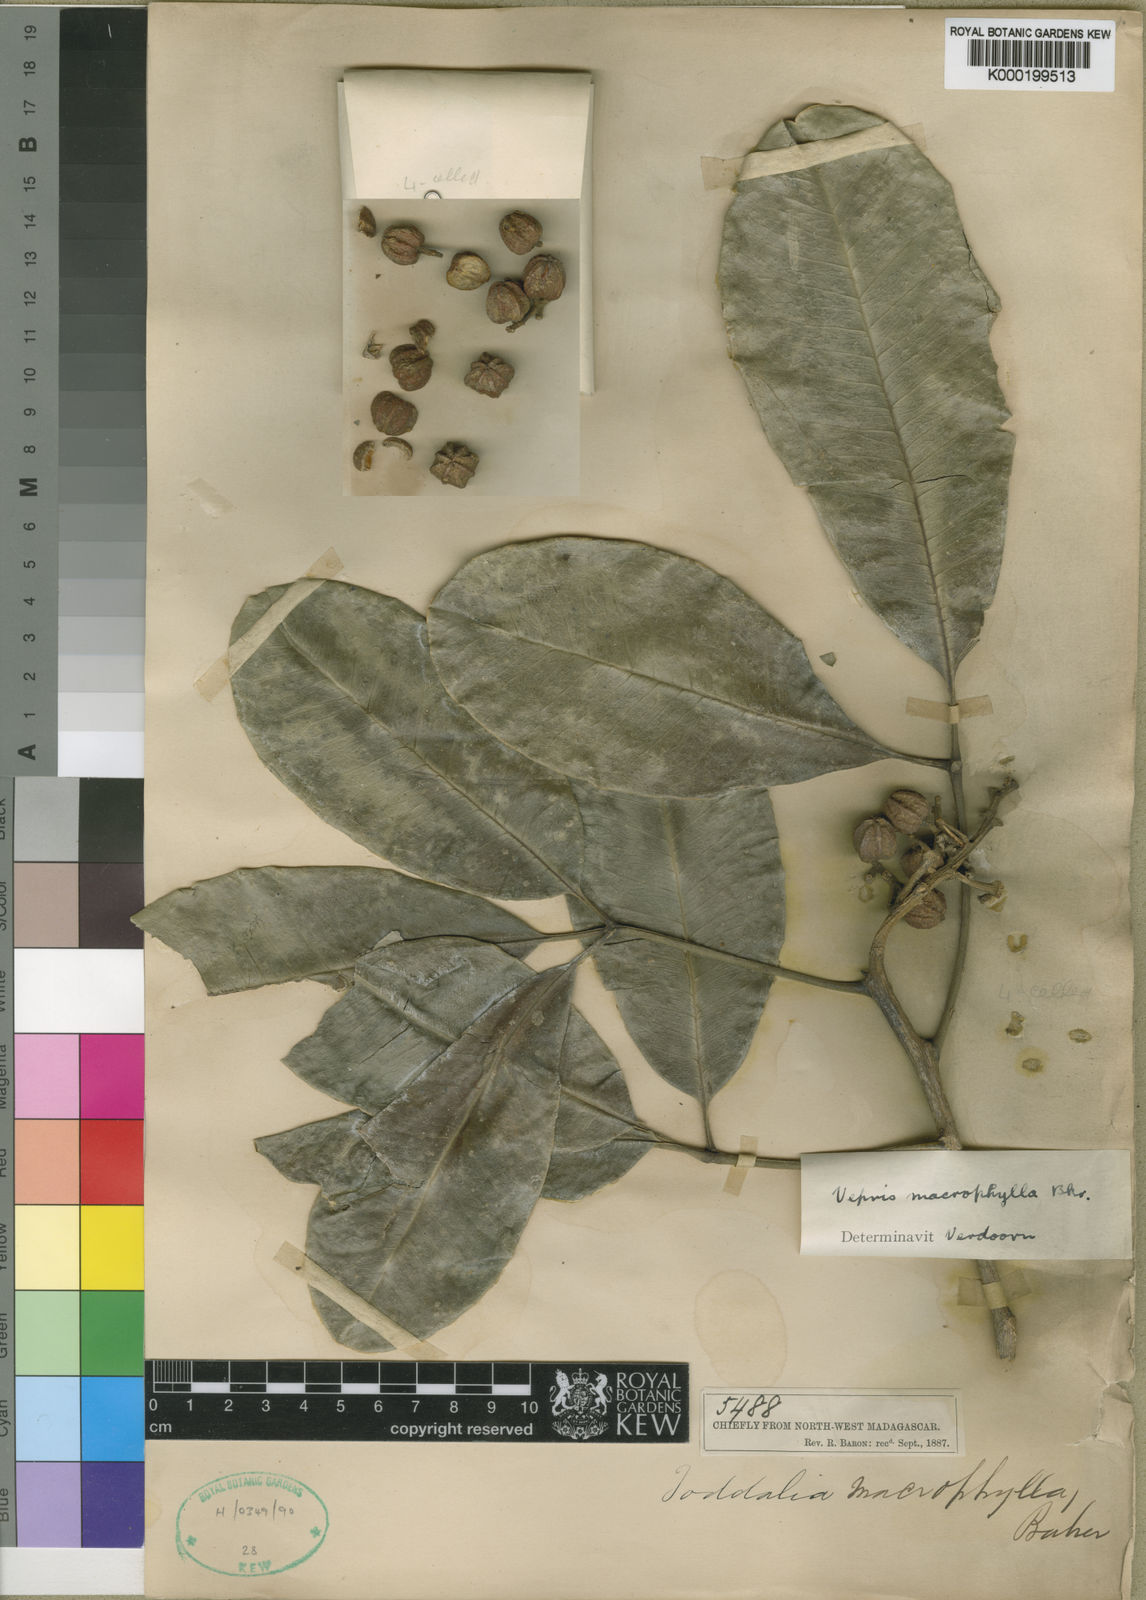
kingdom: Plantae
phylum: Tracheophyta
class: Magnoliopsida
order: Sapindales
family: Rutaceae
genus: Vepris
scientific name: Vepris macrophylla
